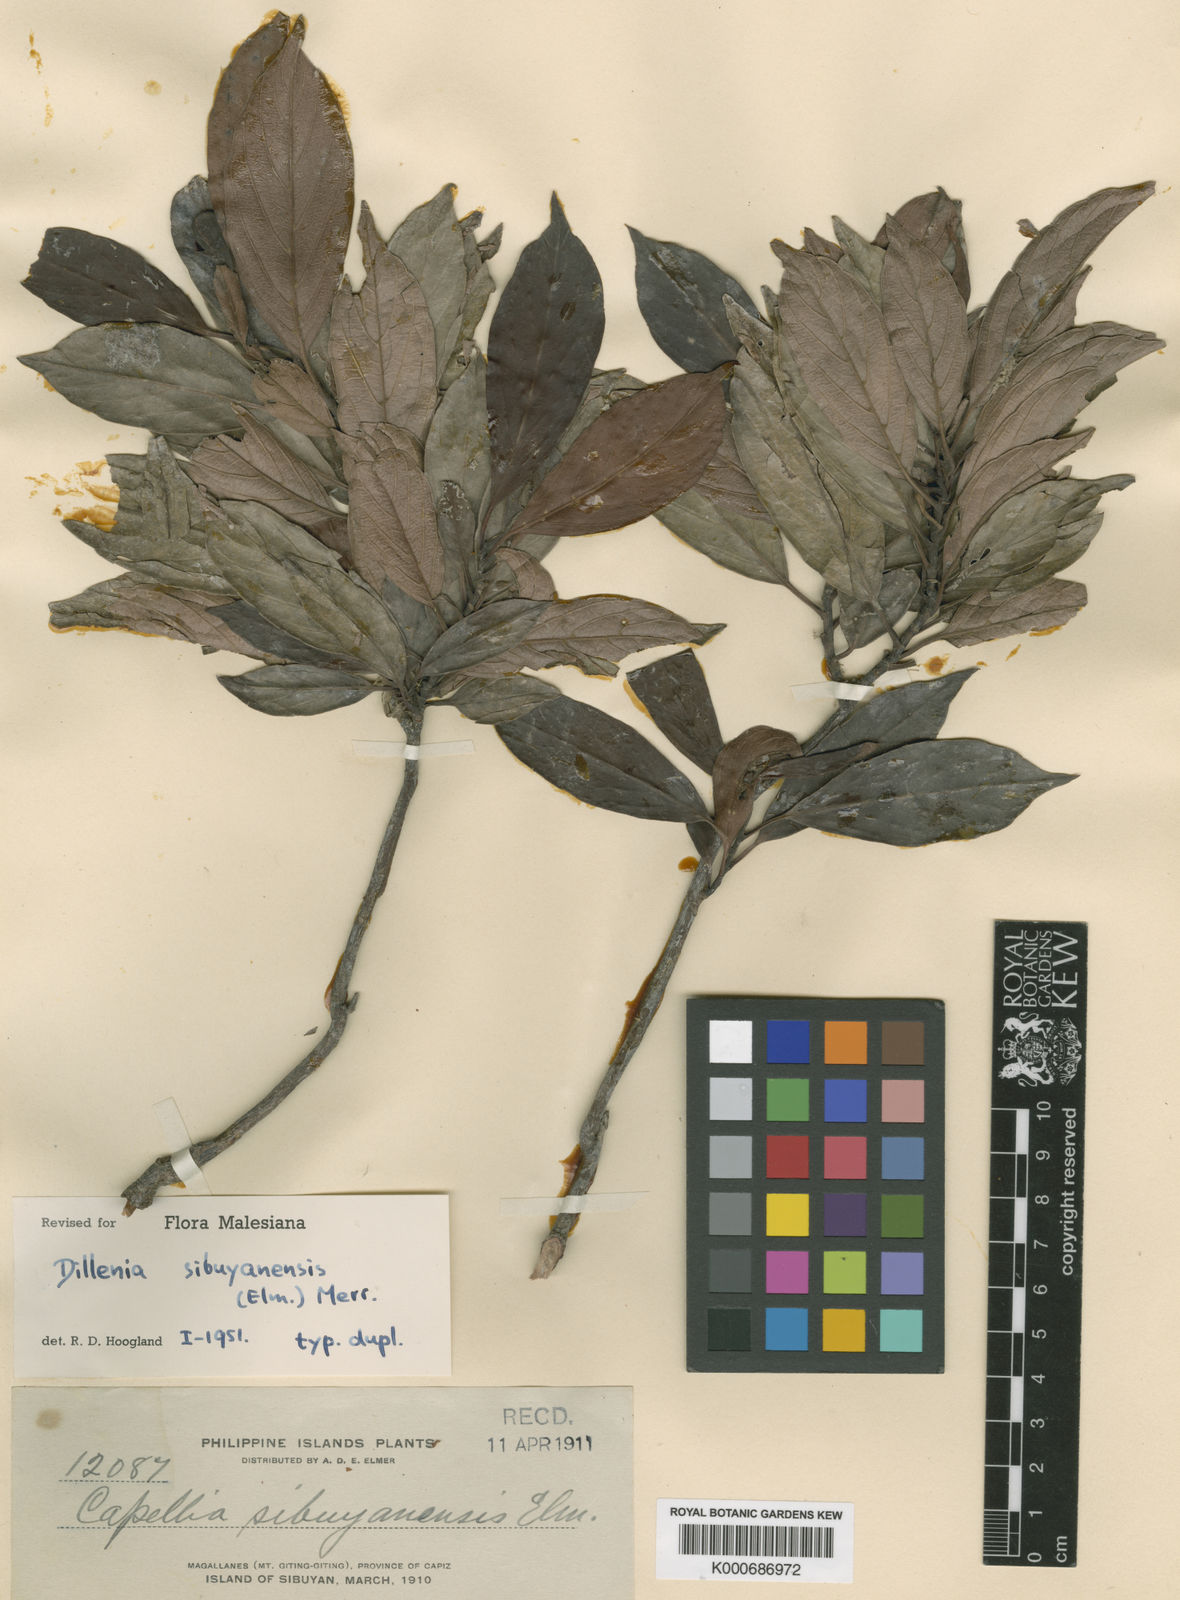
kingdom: Plantae
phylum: Tracheophyta
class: Magnoliopsida
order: Dilleniales
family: Dilleniaceae
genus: Dillenia
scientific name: Dillenia sibuyanensis
